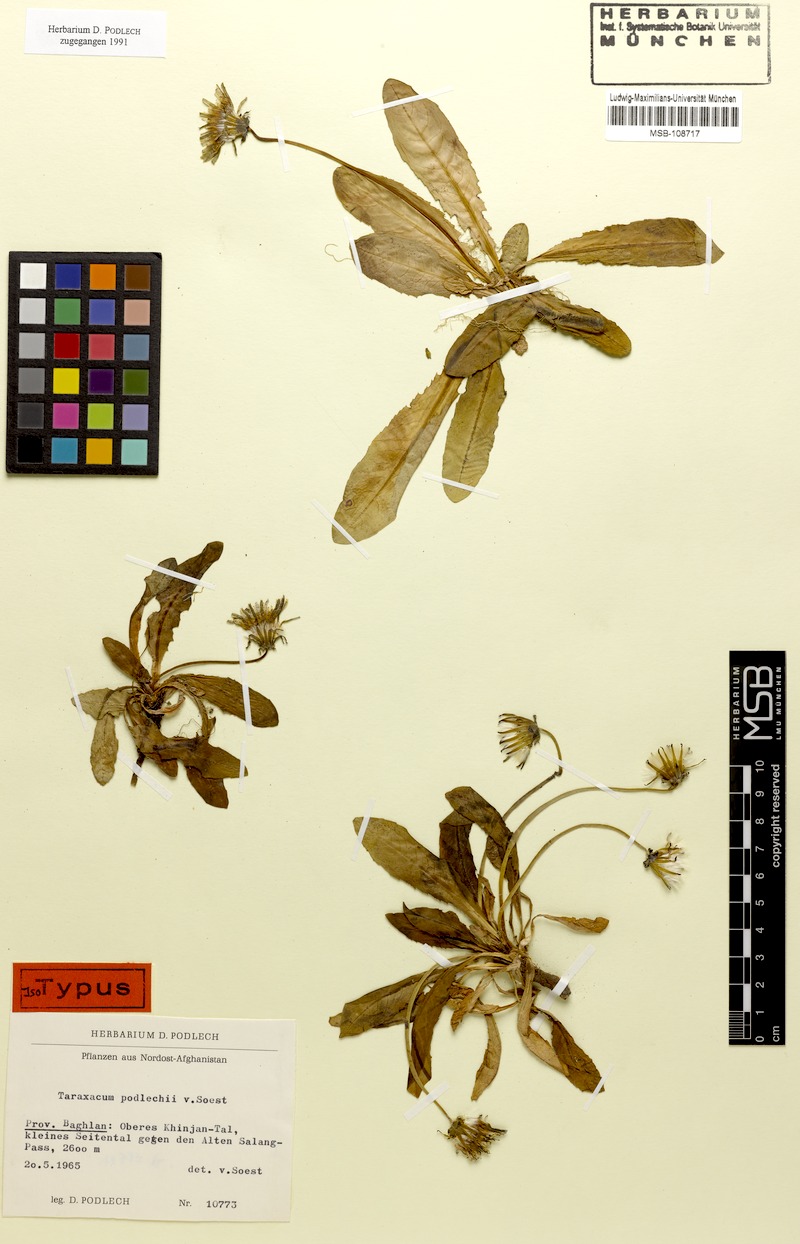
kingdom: Plantae
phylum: Tracheophyta
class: Magnoliopsida
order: Asterales
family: Asteraceae
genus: Taraxacum
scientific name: Taraxacum podlechii
